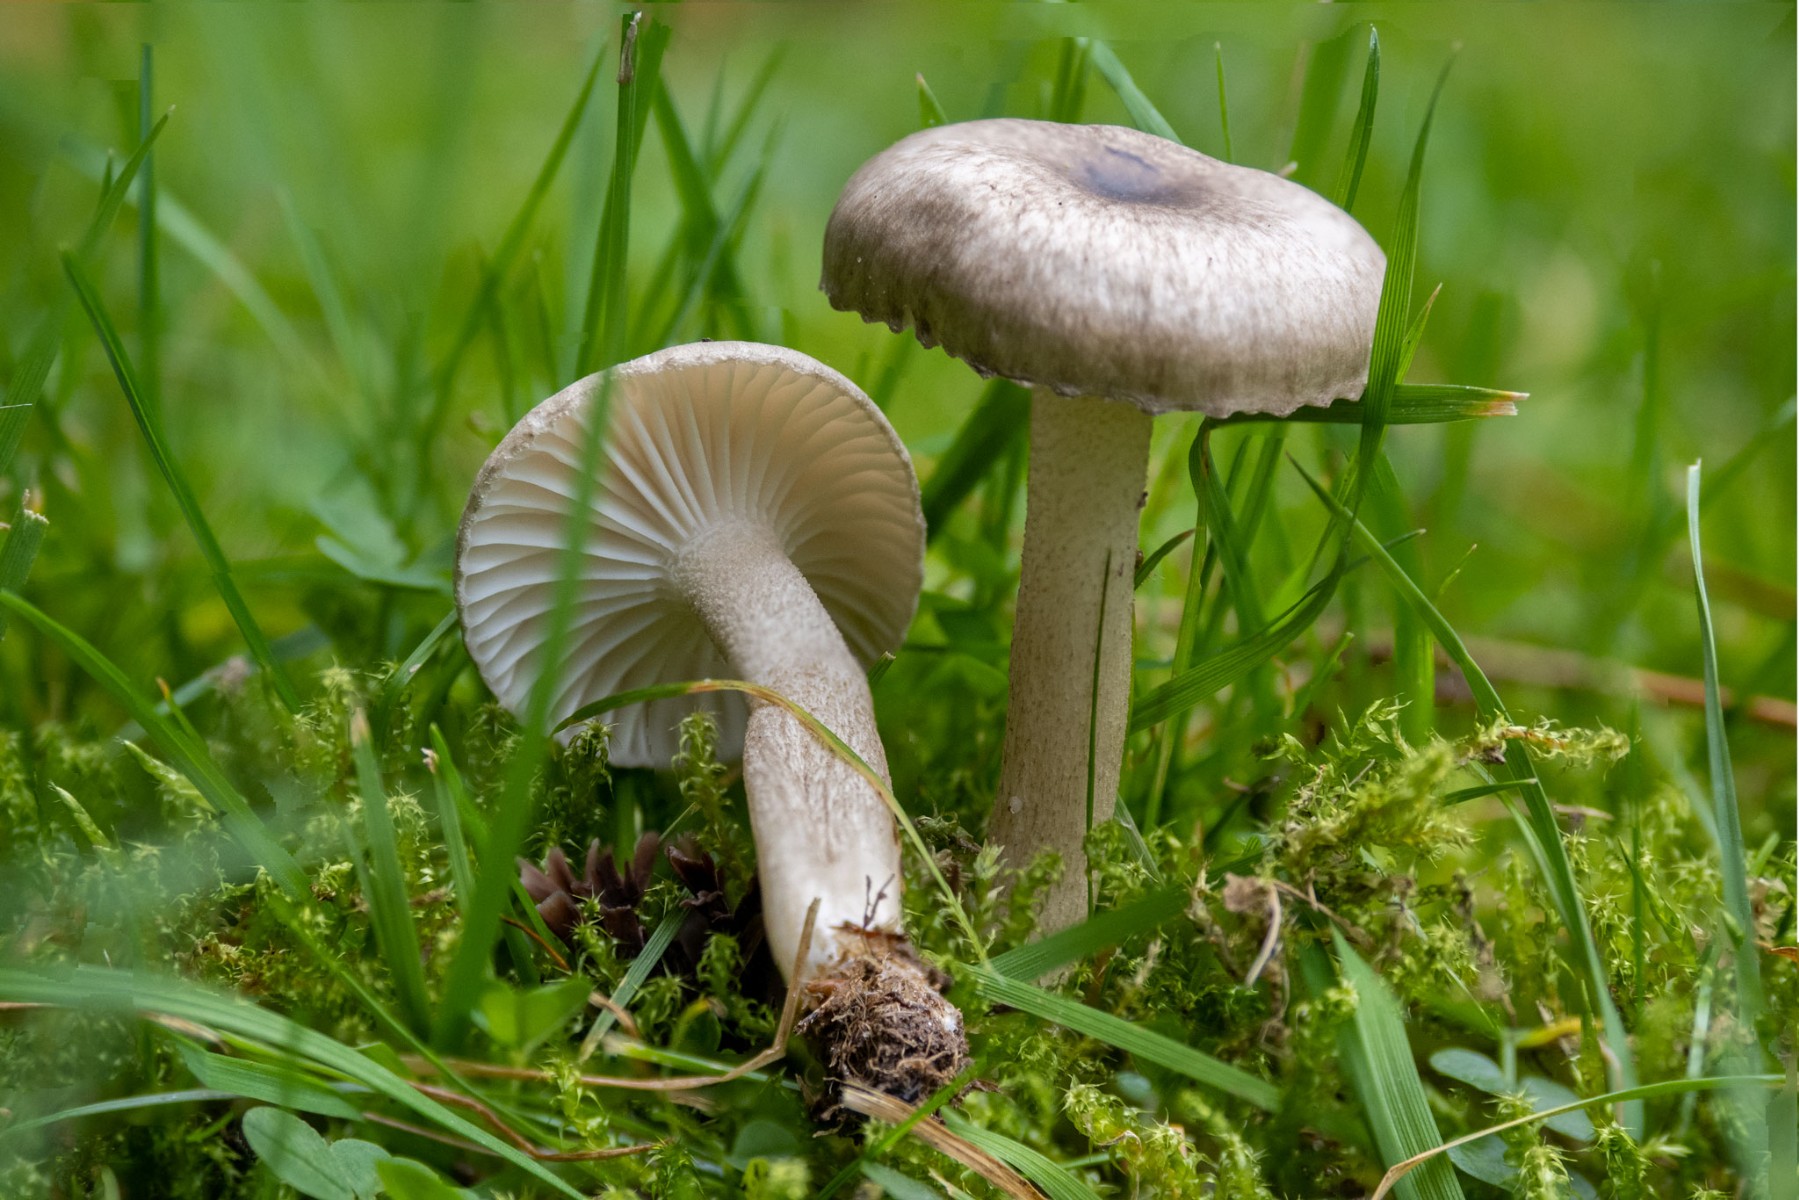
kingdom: Fungi
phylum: Basidiomycota
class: Agaricomycetes
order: Agaricales
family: Hygrophoraceae
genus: Hygrophorus
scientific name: Hygrophorus pustulatus
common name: mørkprikket sneglehat
